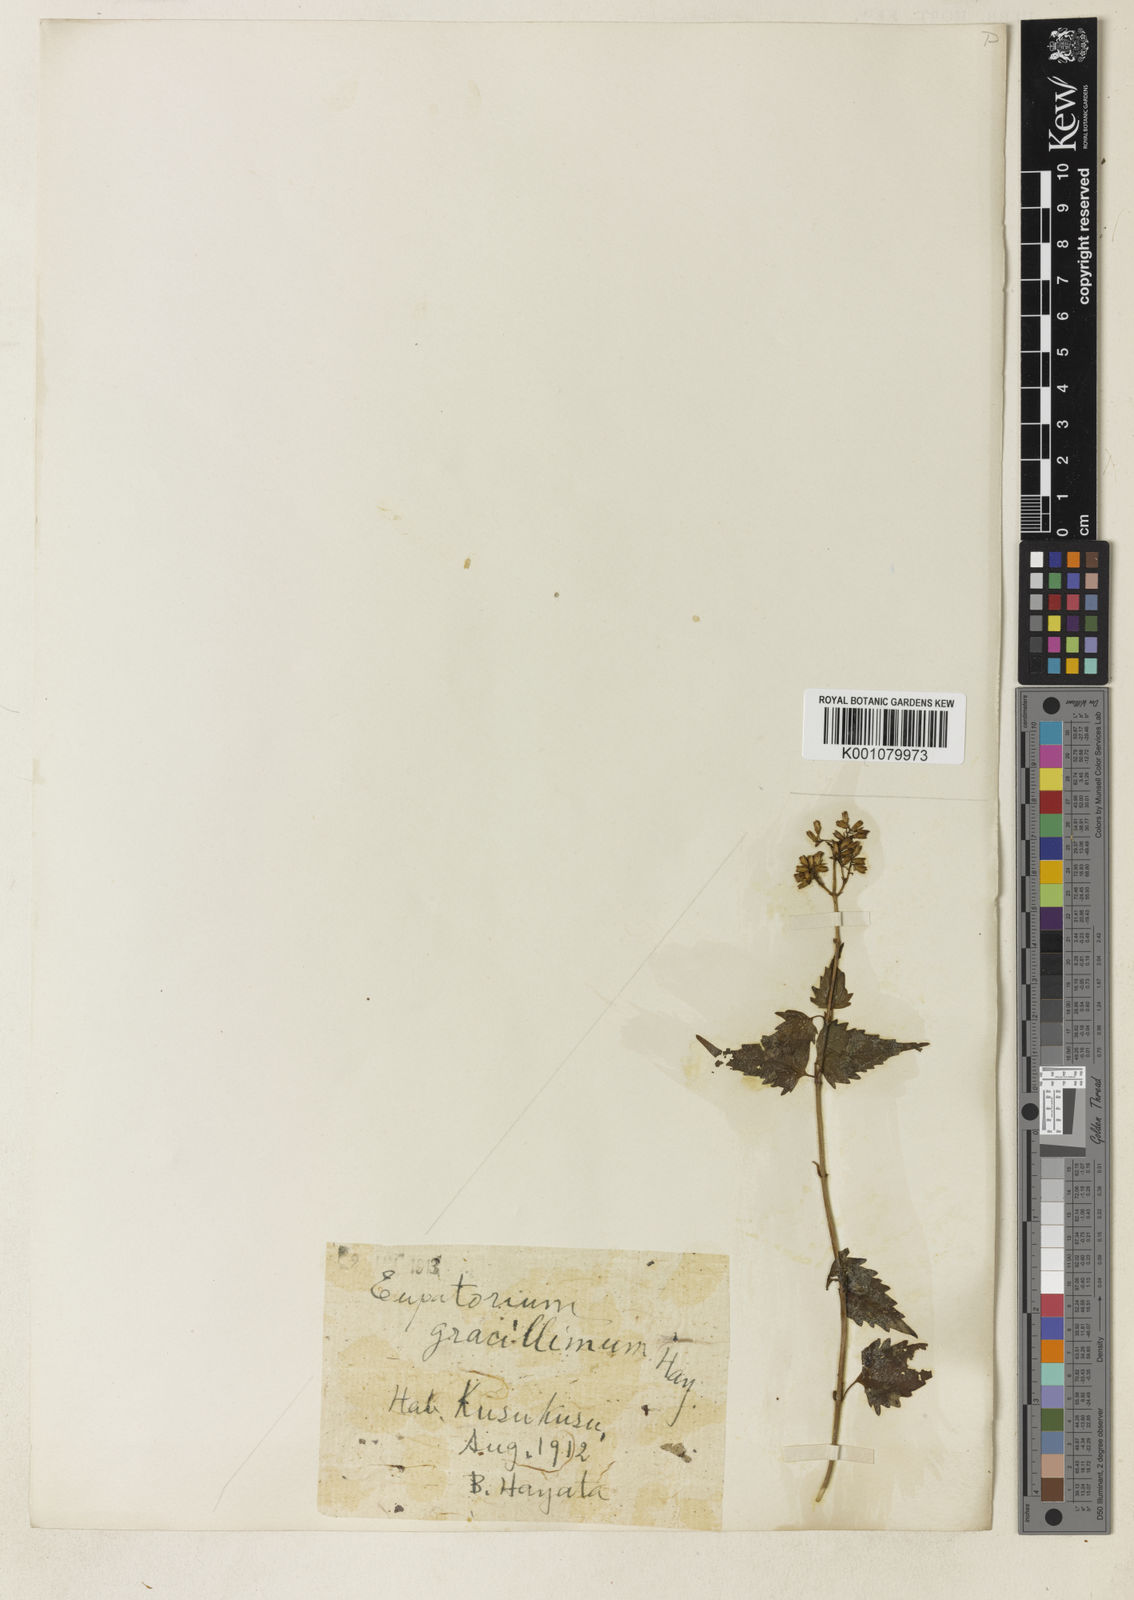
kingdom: Plantae
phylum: Tracheophyta
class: Magnoliopsida
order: Asterales
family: Asteraceae
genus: Eupatorium
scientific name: Eupatorium tashiroi
